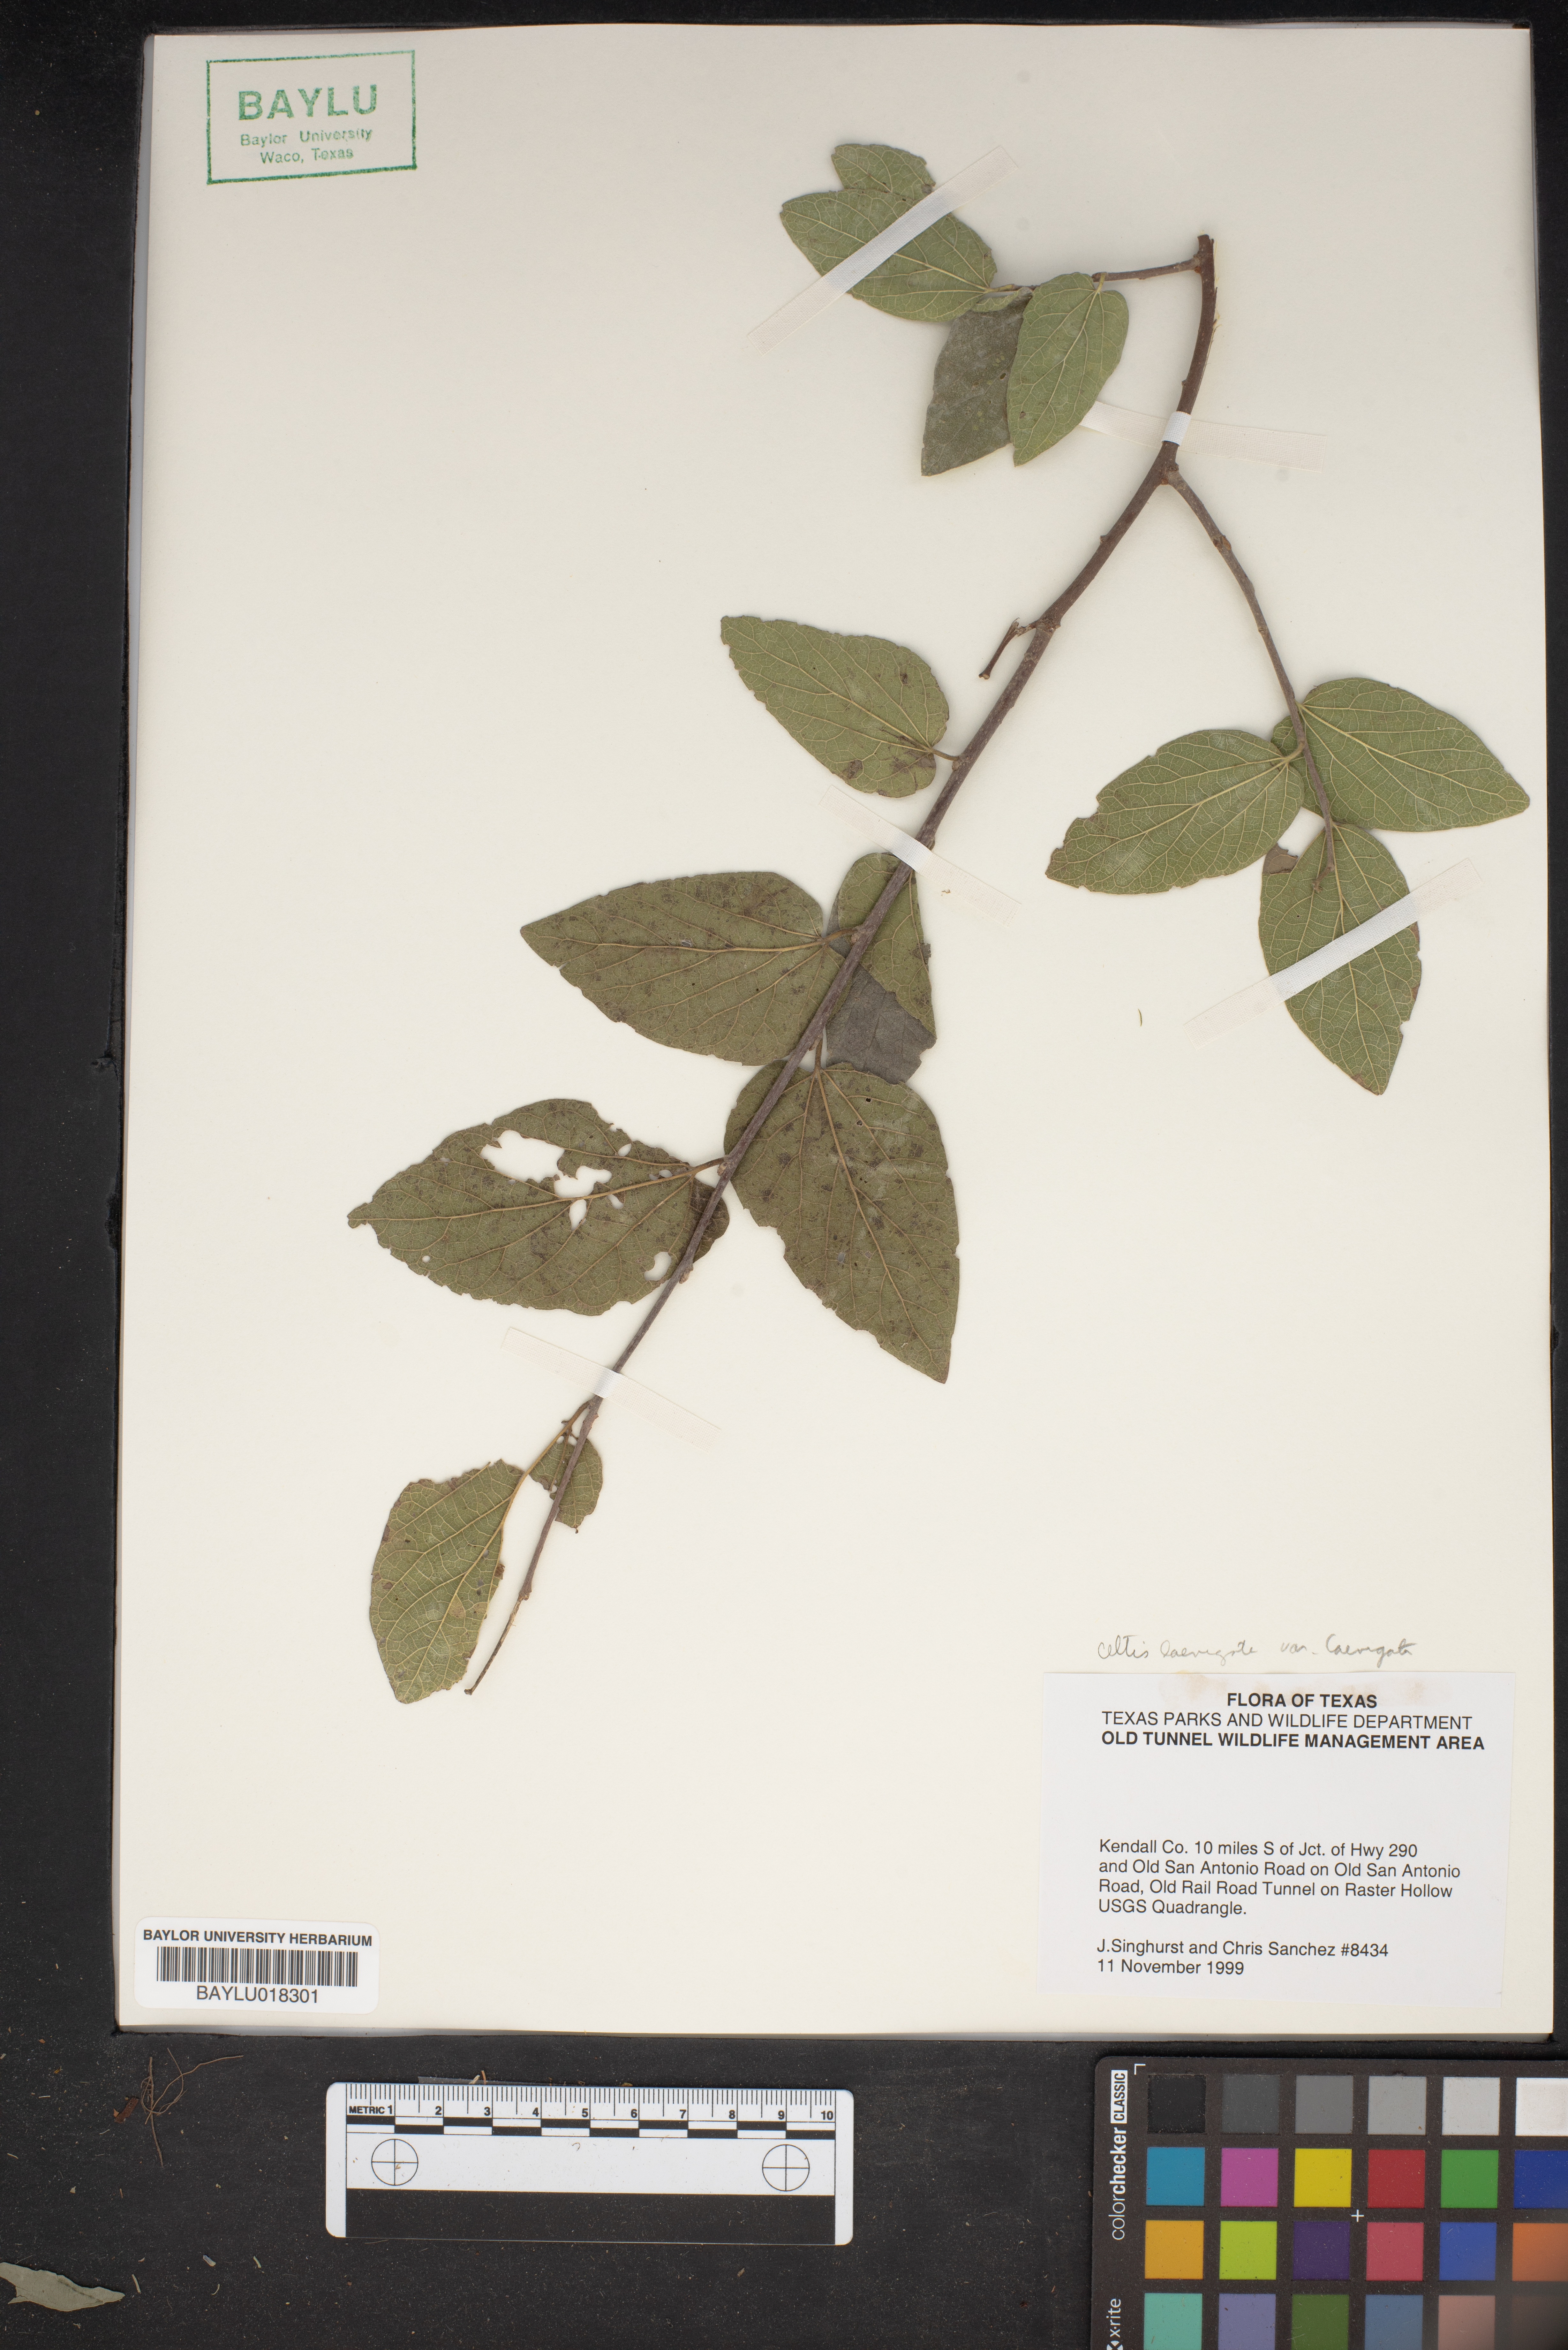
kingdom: Plantae
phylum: Tracheophyta
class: Magnoliopsida
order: Rosales
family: Cannabaceae
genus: Celtis
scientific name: Celtis laevigata
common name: Sugarberry
